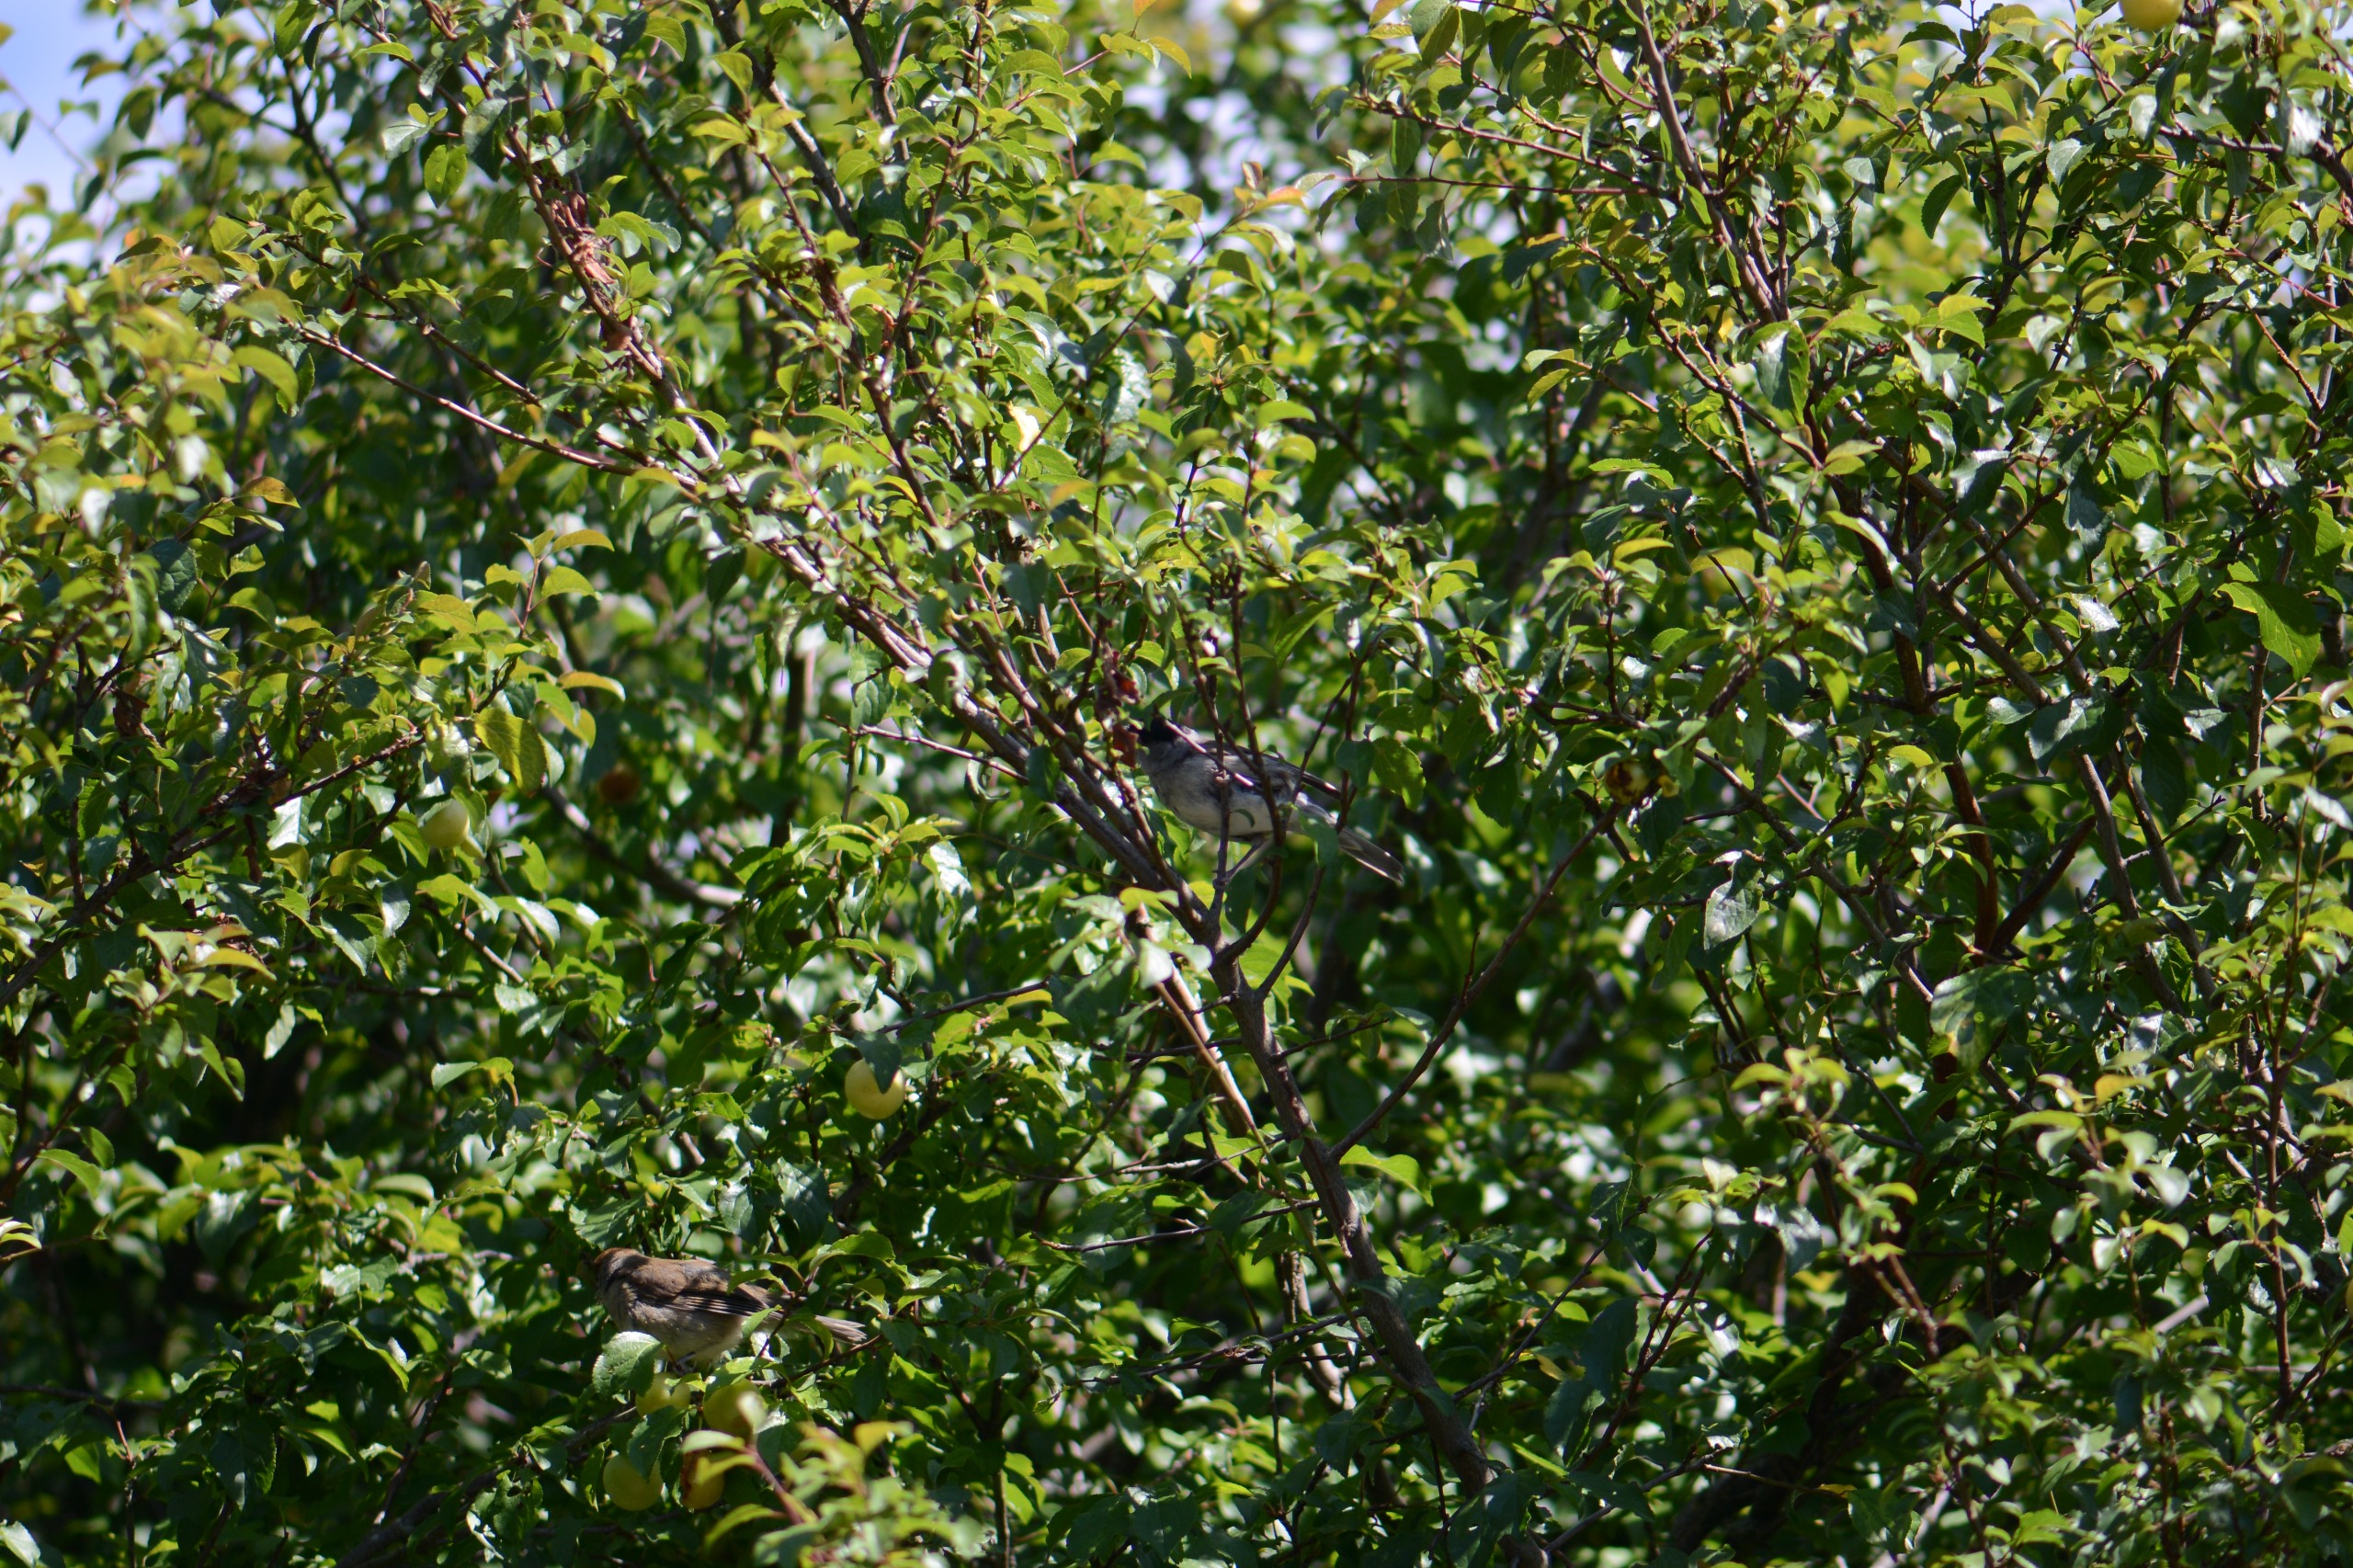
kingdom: Animalia
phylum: Chordata
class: Aves
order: Passeriformes
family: Sylviidae
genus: Sylvia
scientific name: Sylvia atricapilla
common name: Munk
